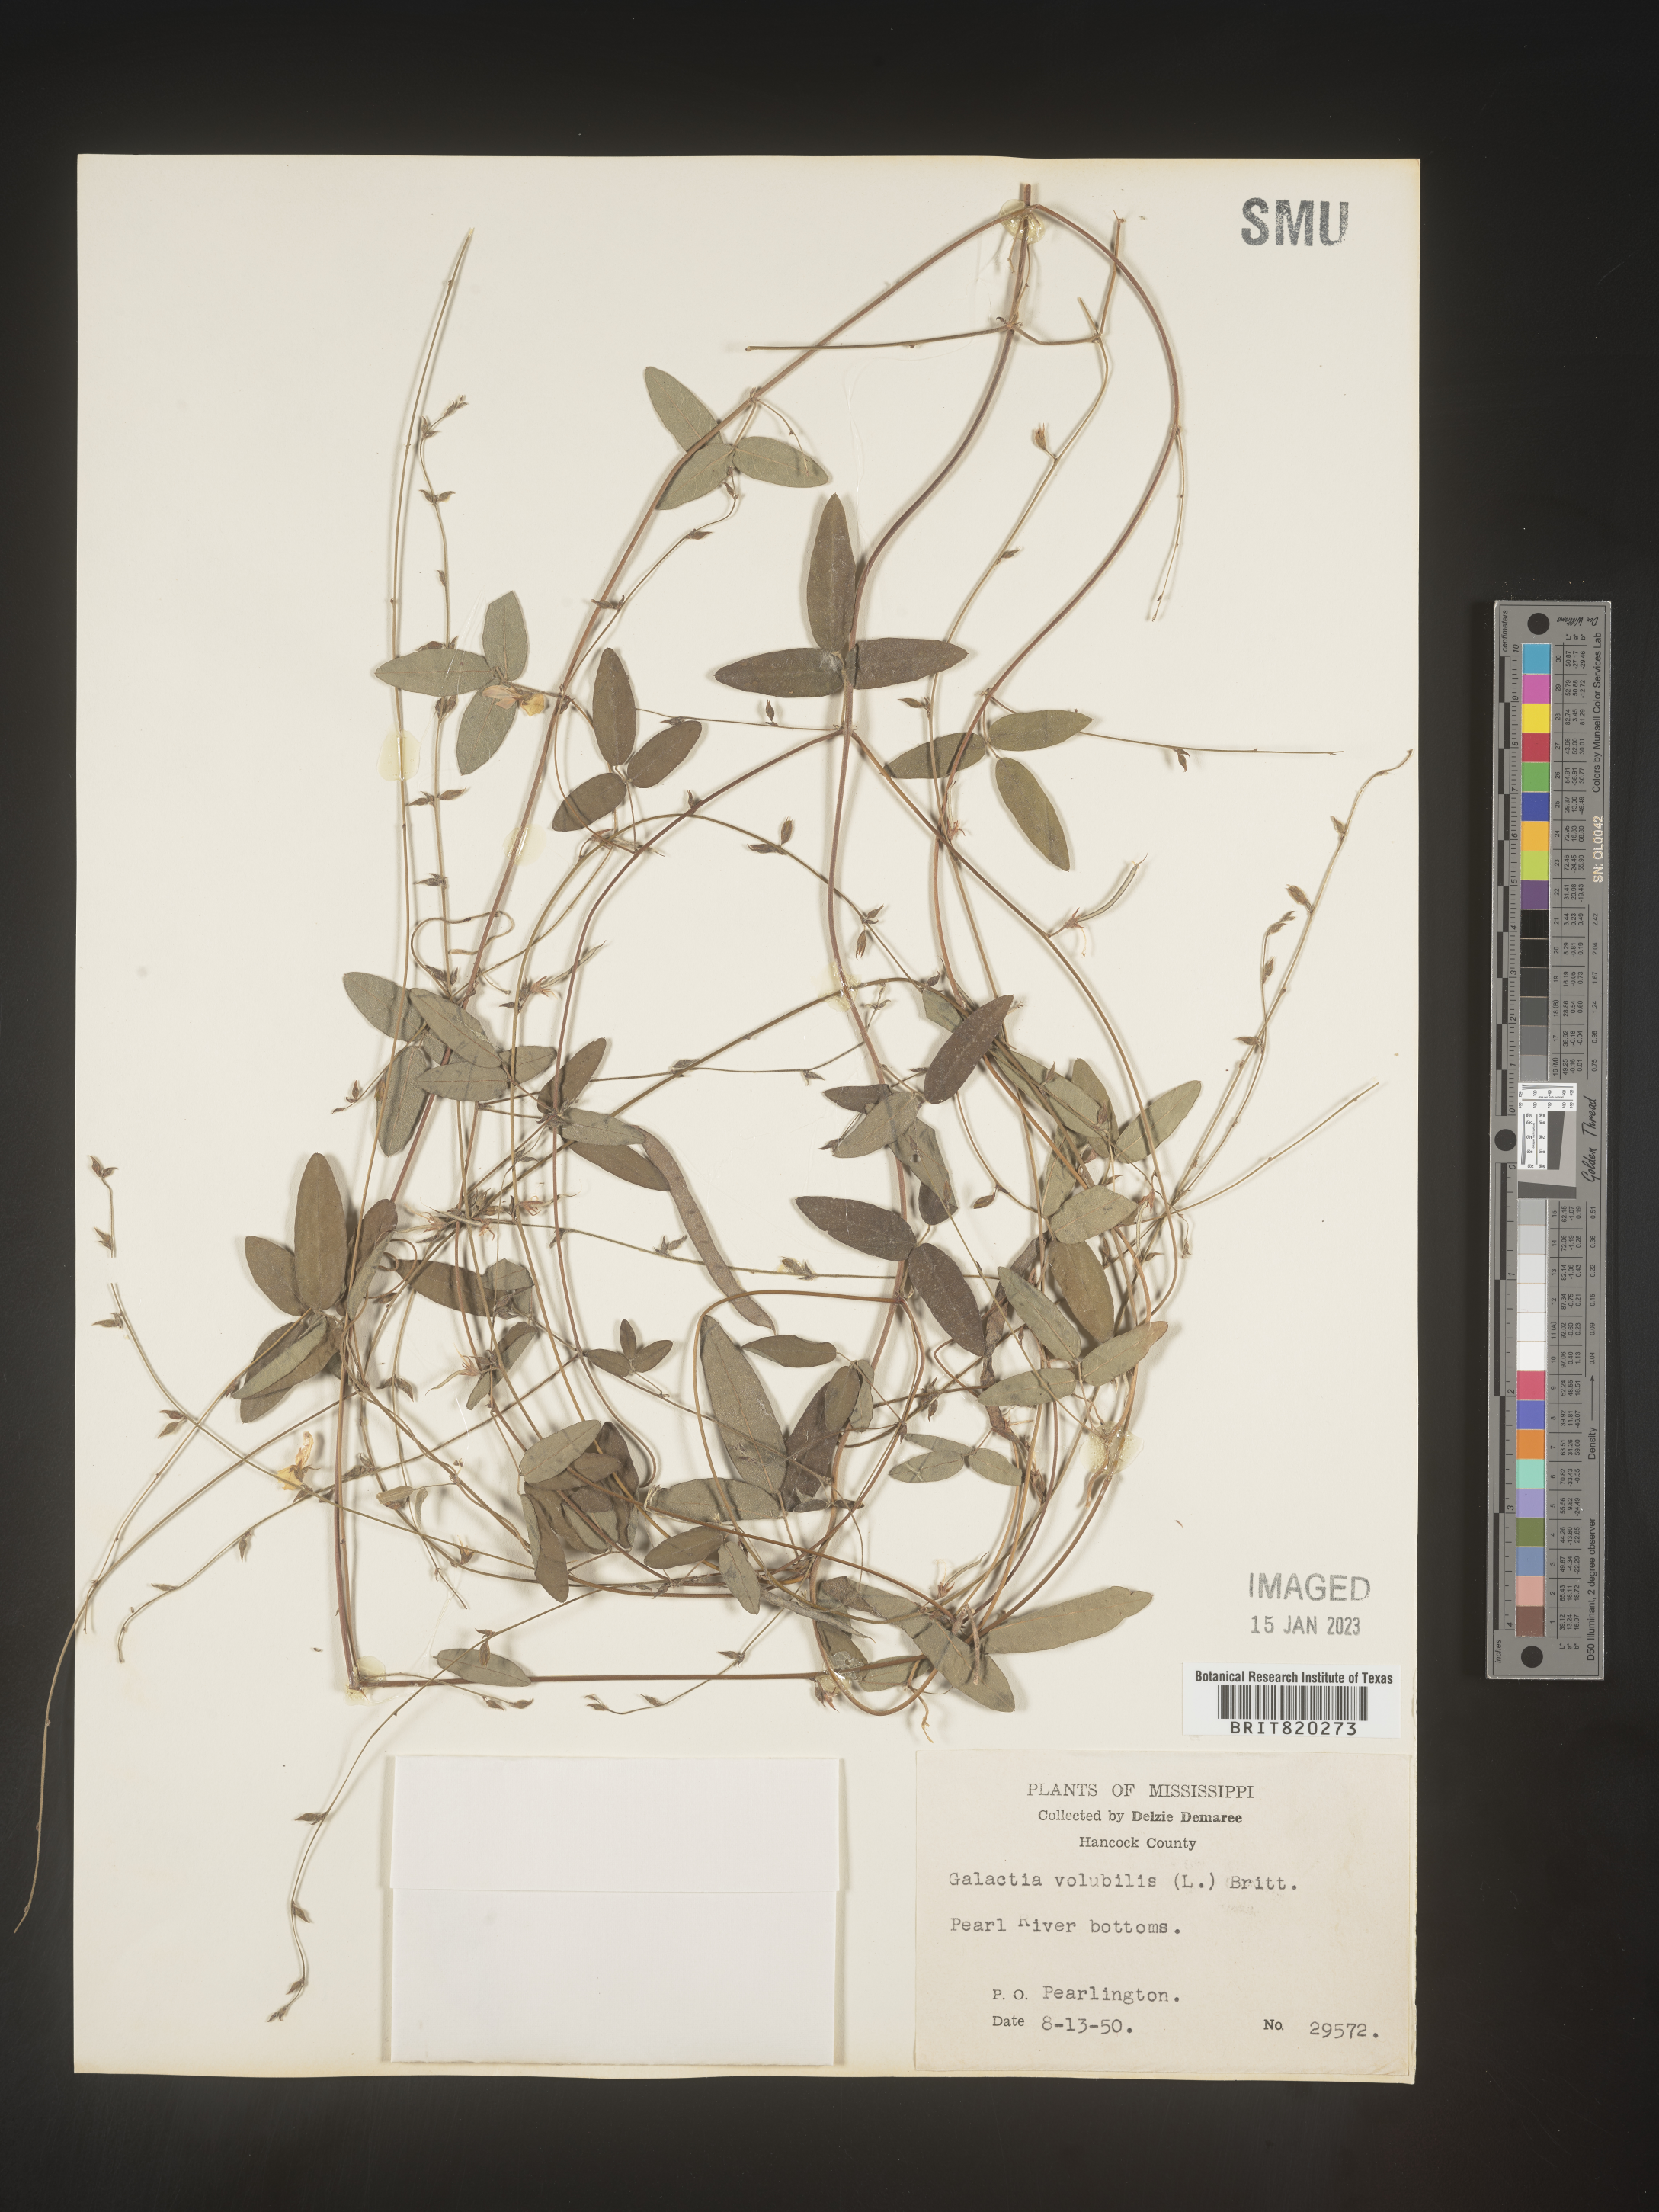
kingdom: Plantae
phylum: Tracheophyta
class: Magnoliopsida
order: Fabales
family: Fabaceae
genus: Galactia
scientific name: Galactia volubilis
